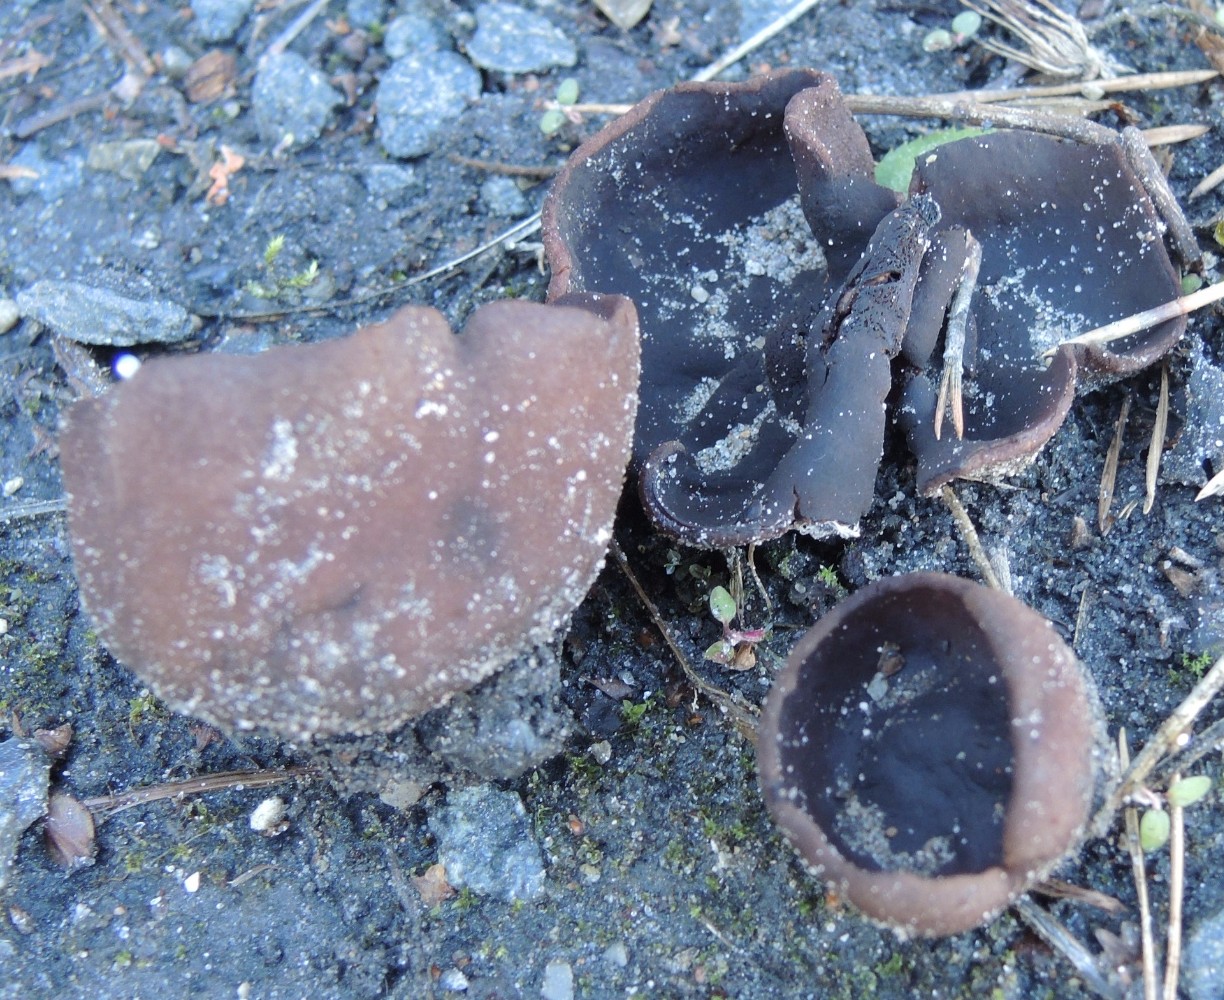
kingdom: Fungi
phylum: Ascomycota
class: Pezizomycetes
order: Pezizales
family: Pezizaceae
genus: Legaliana
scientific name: Legaliana badia
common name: leverbrun bægersvamp
